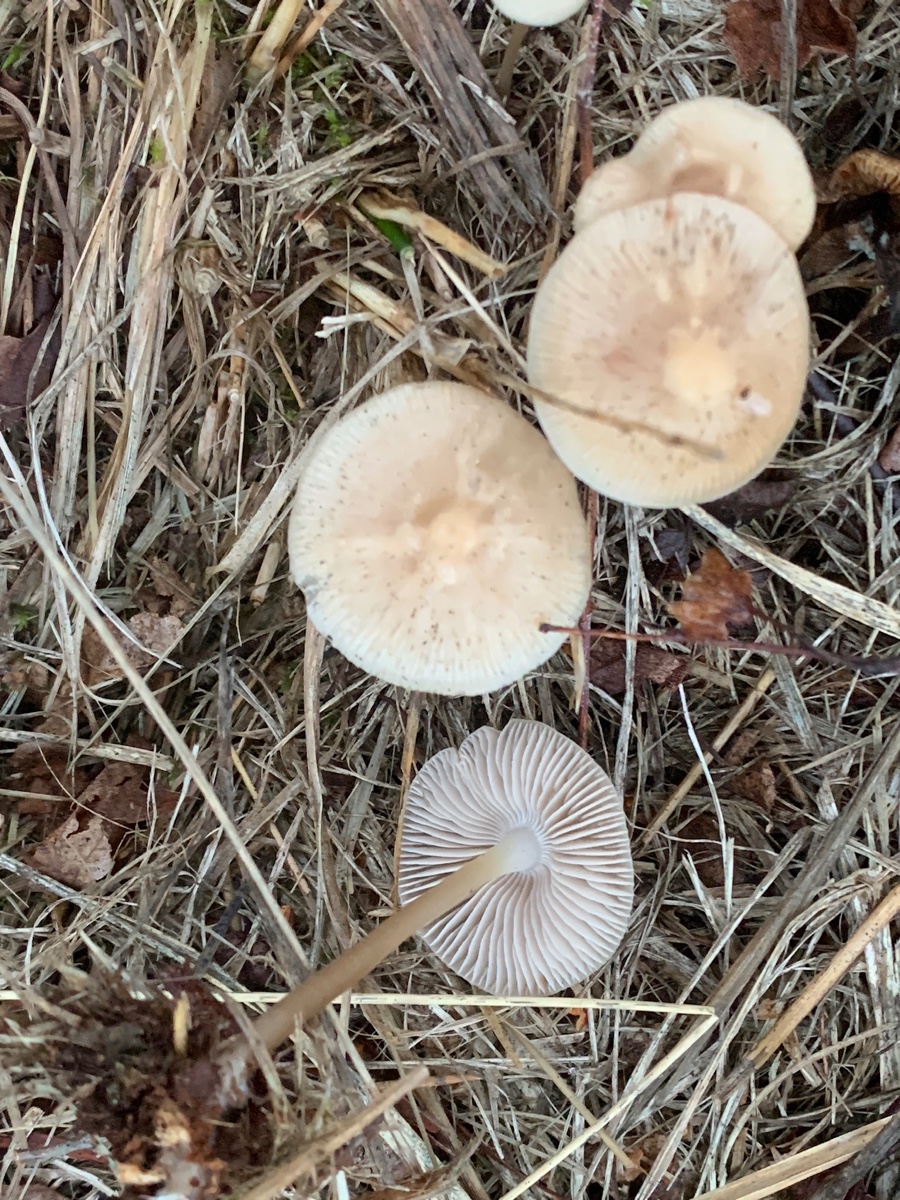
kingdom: Fungi
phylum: Basidiomycota
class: Agaricomycetes
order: Agaricales
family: Mycenaceae
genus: Mycena
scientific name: Mycena galericulata
